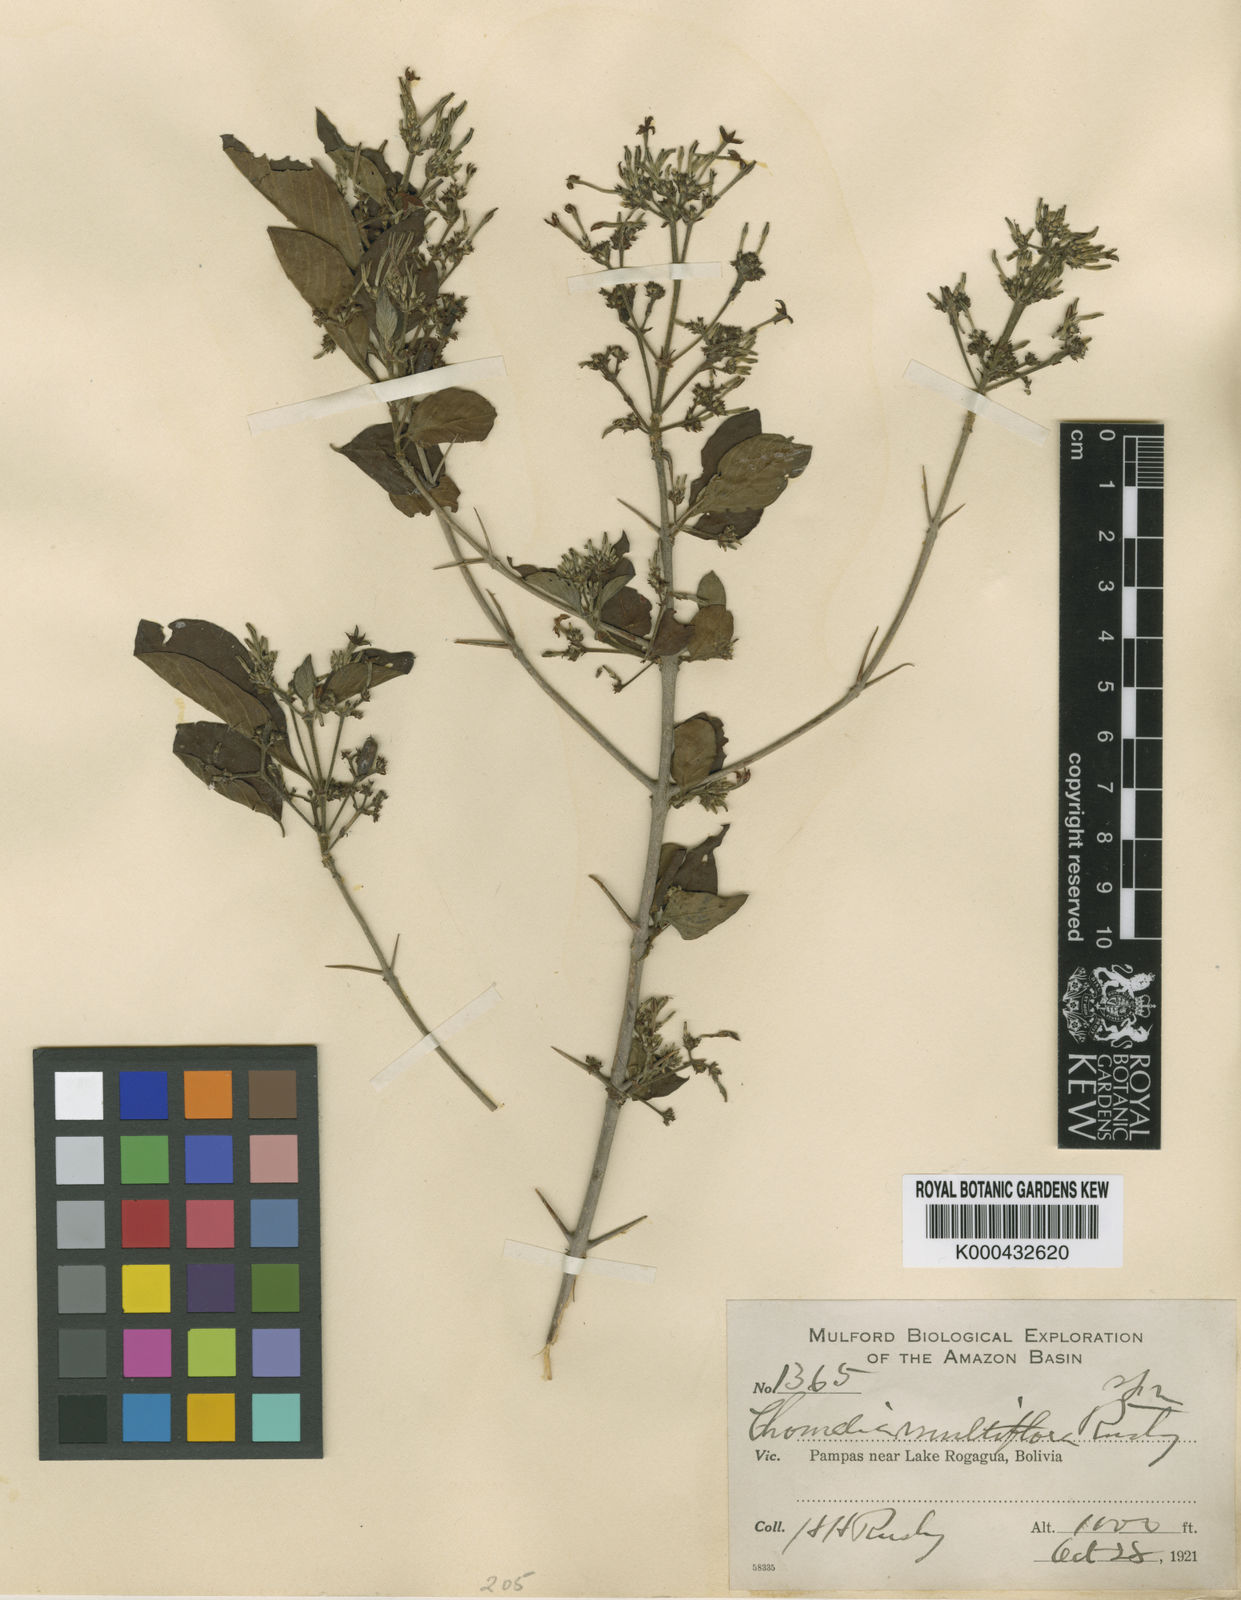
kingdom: Plantae
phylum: Tracheophyta
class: Magnoliopsida
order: Gentianales
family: Rubiaceae
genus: Chomelia
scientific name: Chomelia paniculata
